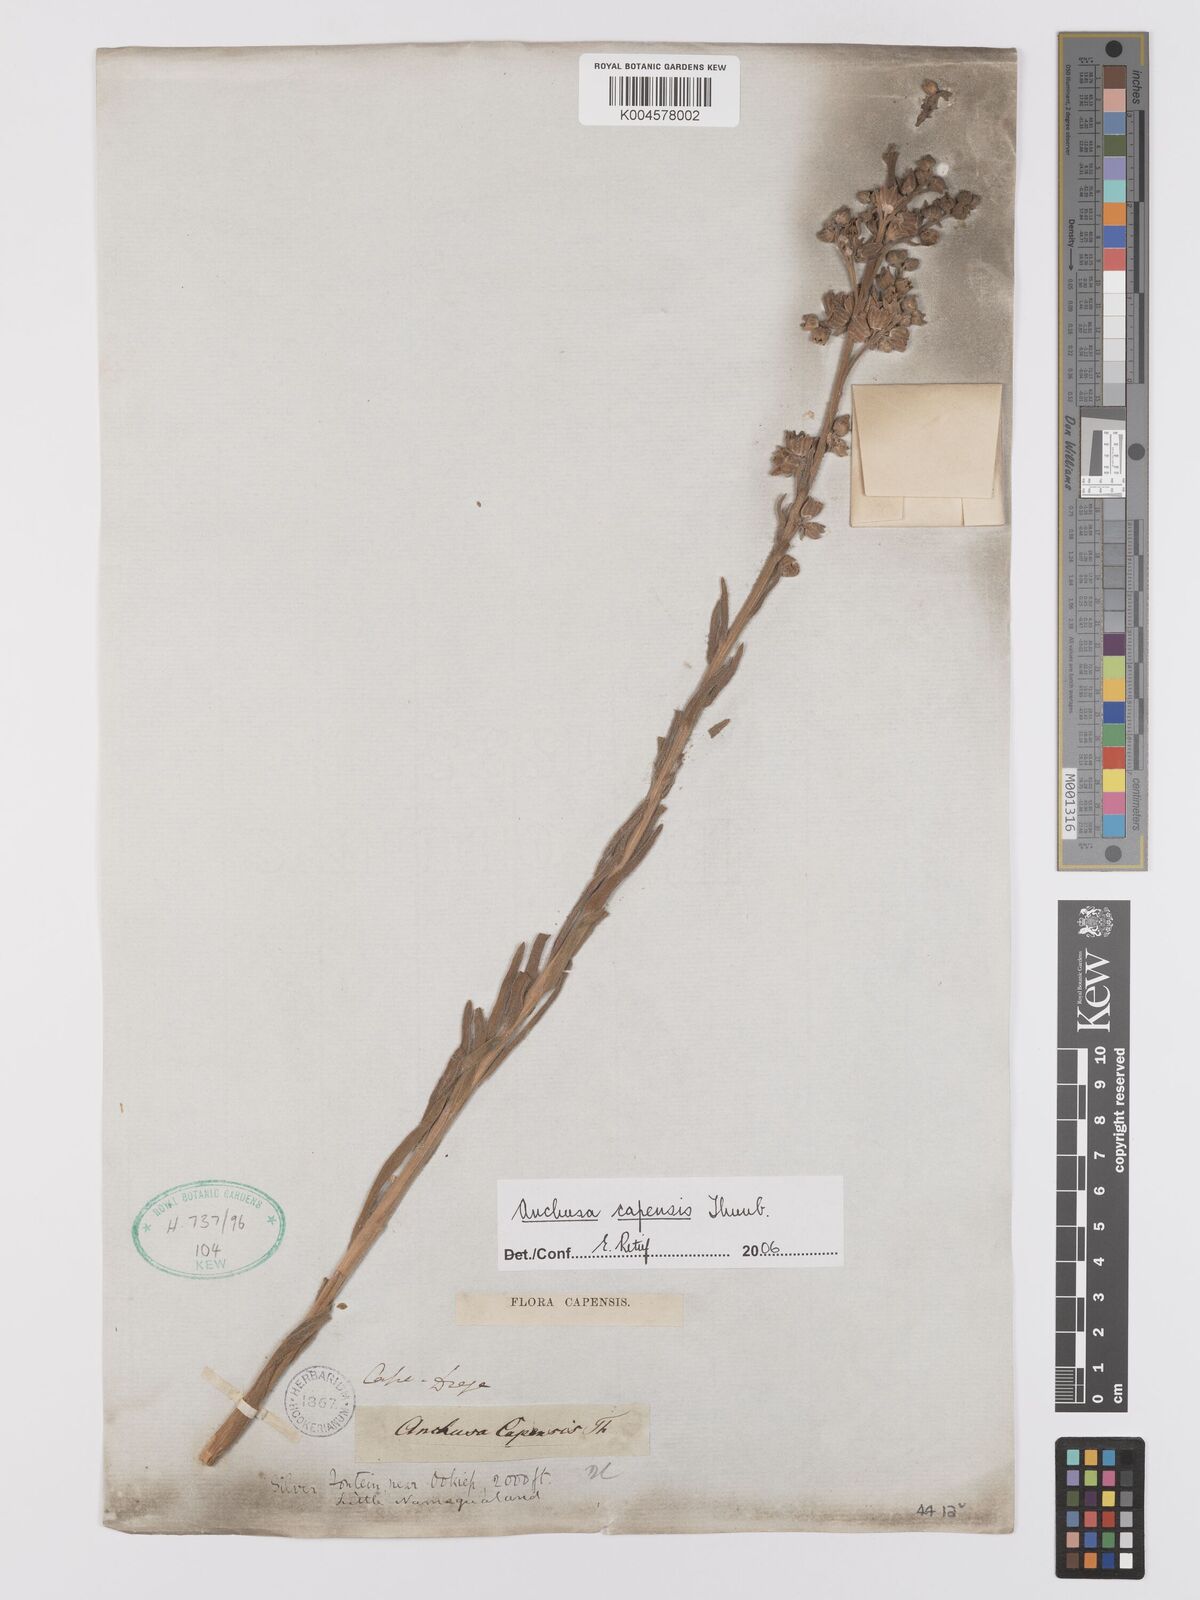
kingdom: Plantae
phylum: Tracheophyta
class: Magnoliopsida
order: Boraginales
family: Boraginaceae
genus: Anchusa
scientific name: Anchusa capensis
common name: Cape bugloss
